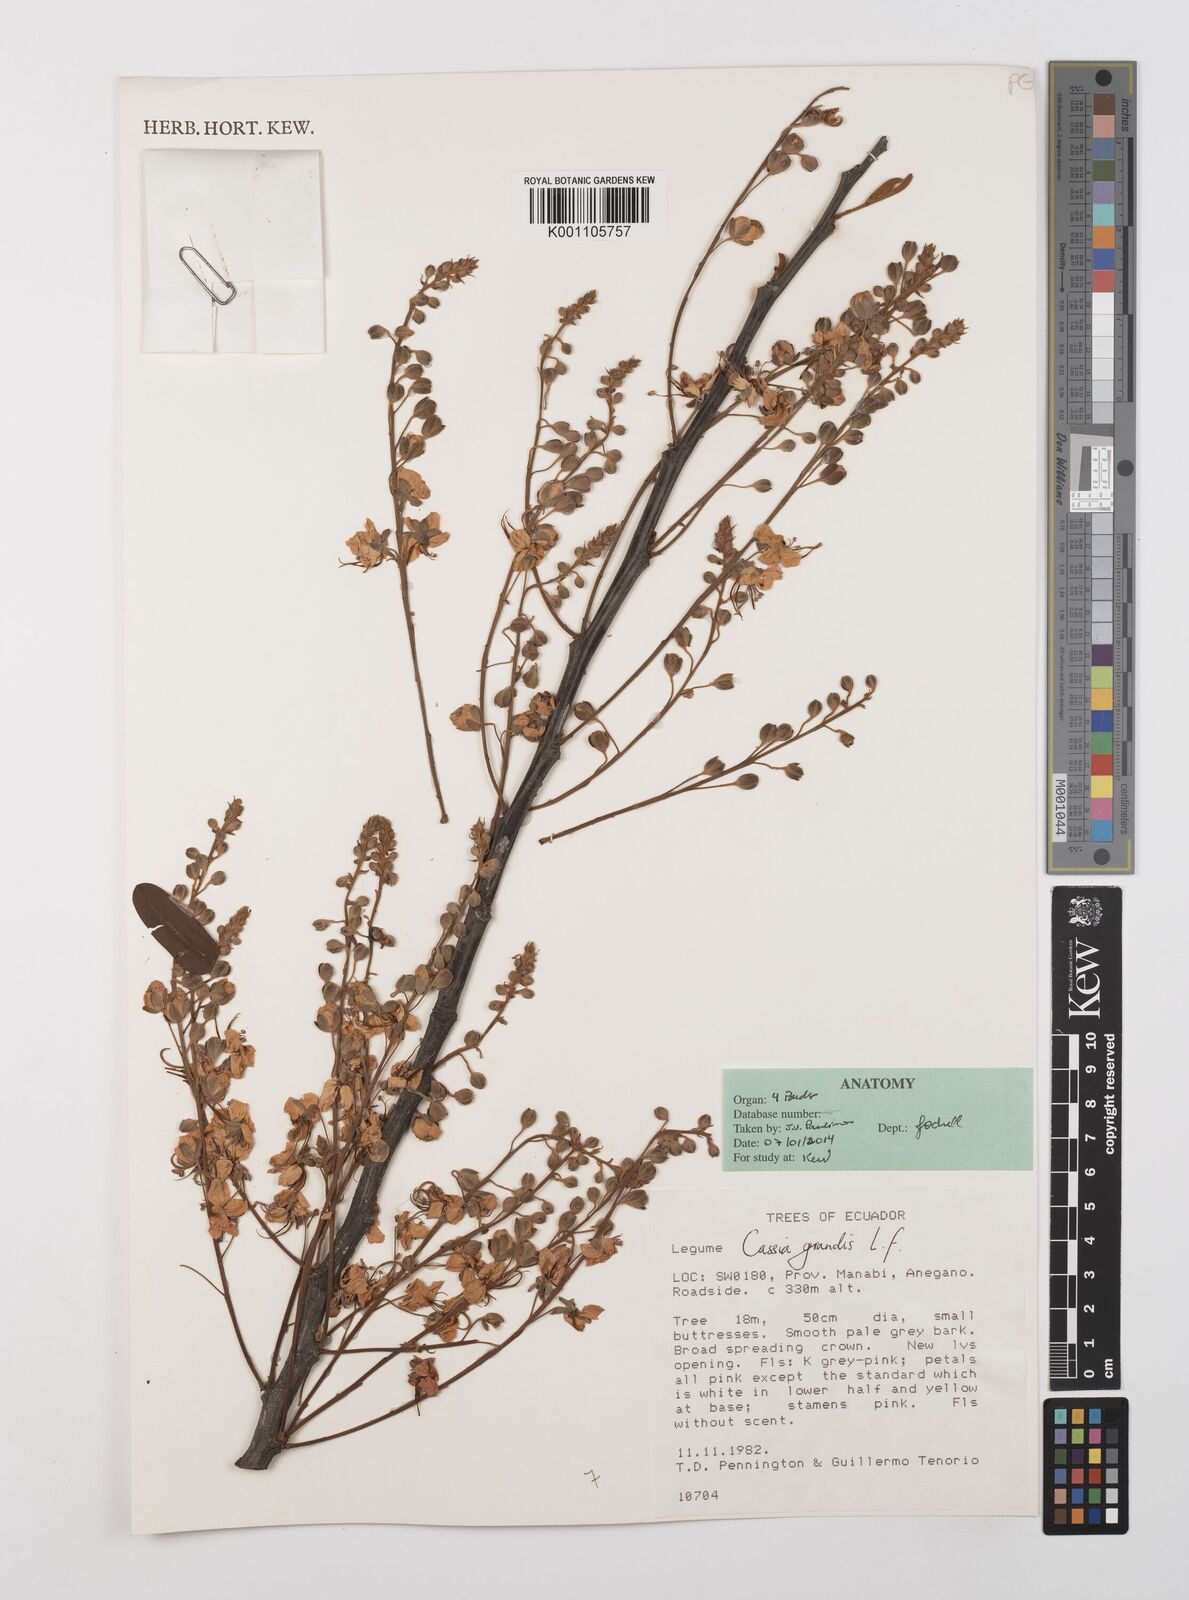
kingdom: Plantae
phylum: Tracheophyta
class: Magnoliopsida
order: Fabales
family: Fabaceae
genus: Cassia
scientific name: Cassia grandis
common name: Appleblossom cassia
